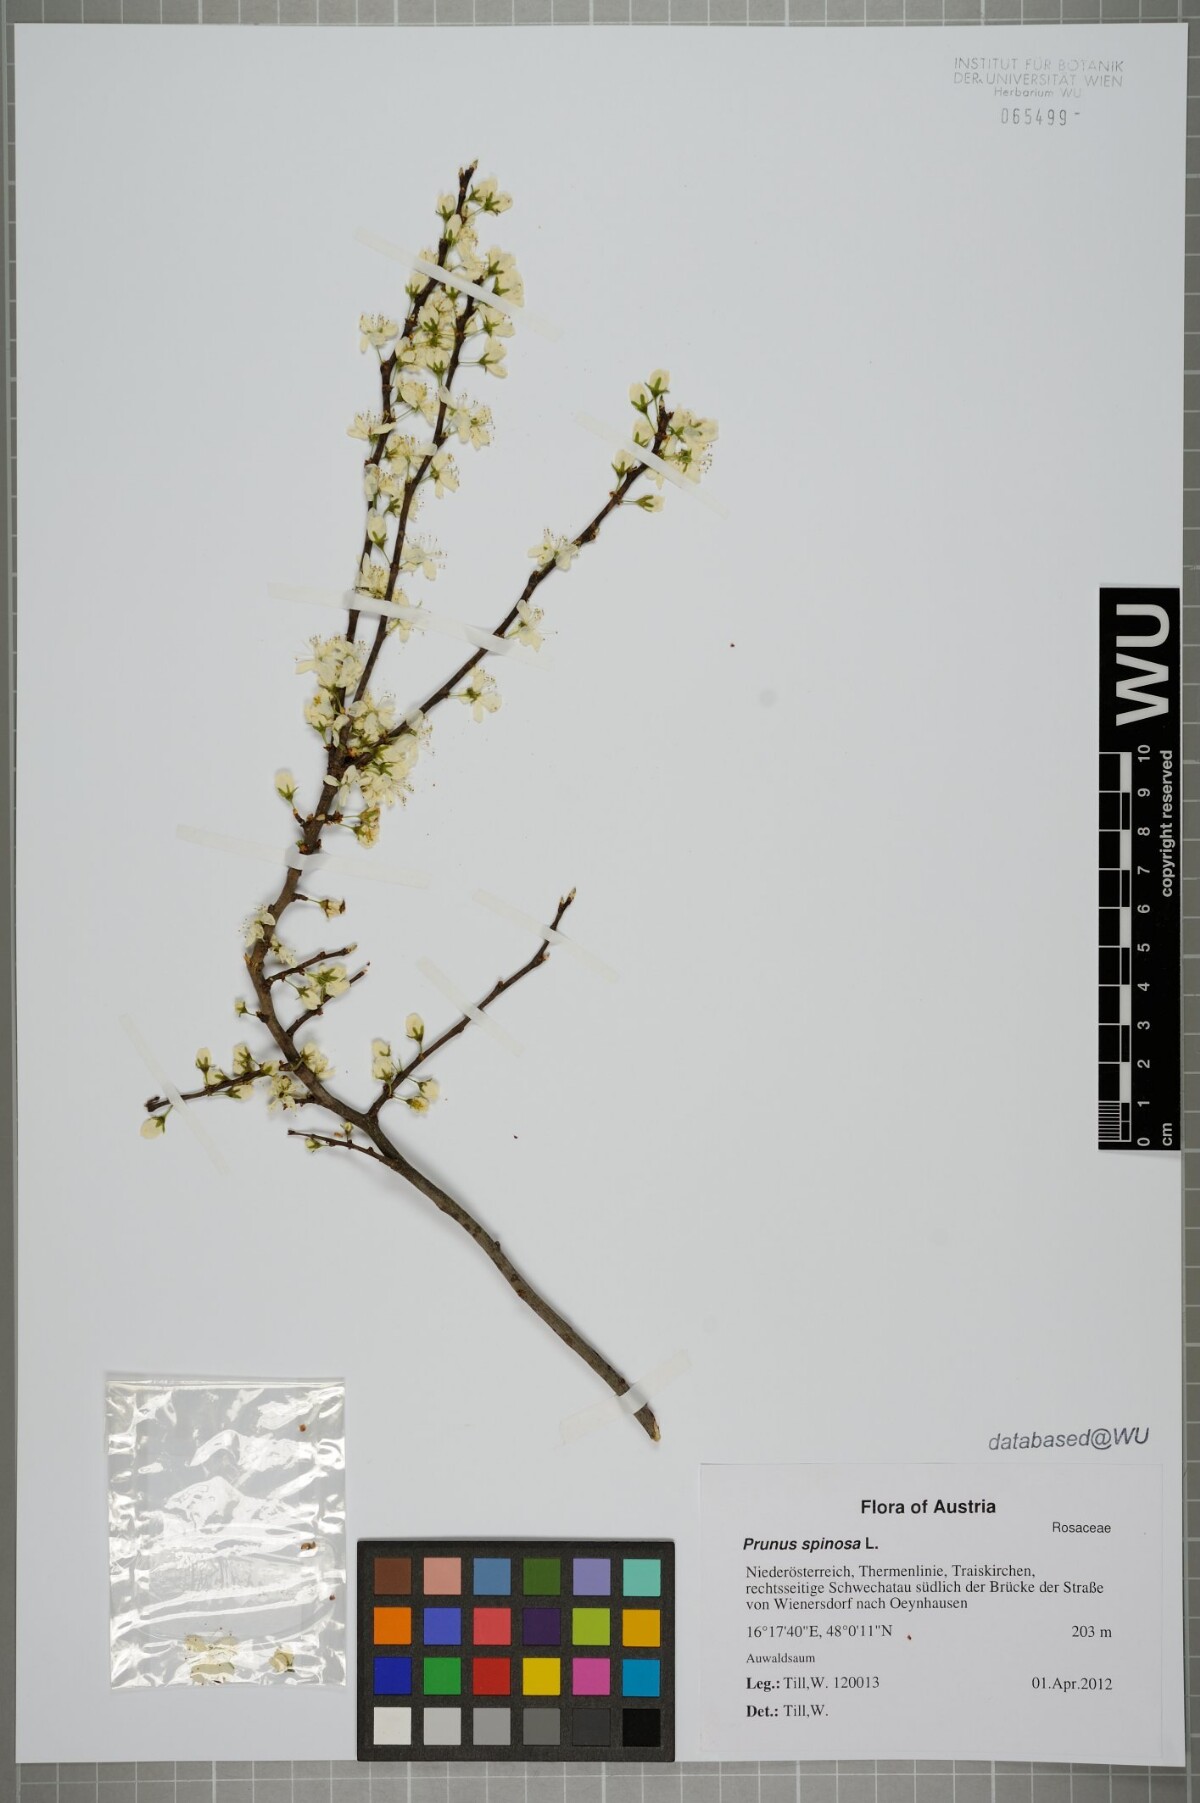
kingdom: Plantae
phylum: Tracheophyta
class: Magnoliopsida
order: Rosales
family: Rosaceae
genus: Prunus
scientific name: Prunus spinosa
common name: Blackthorn
